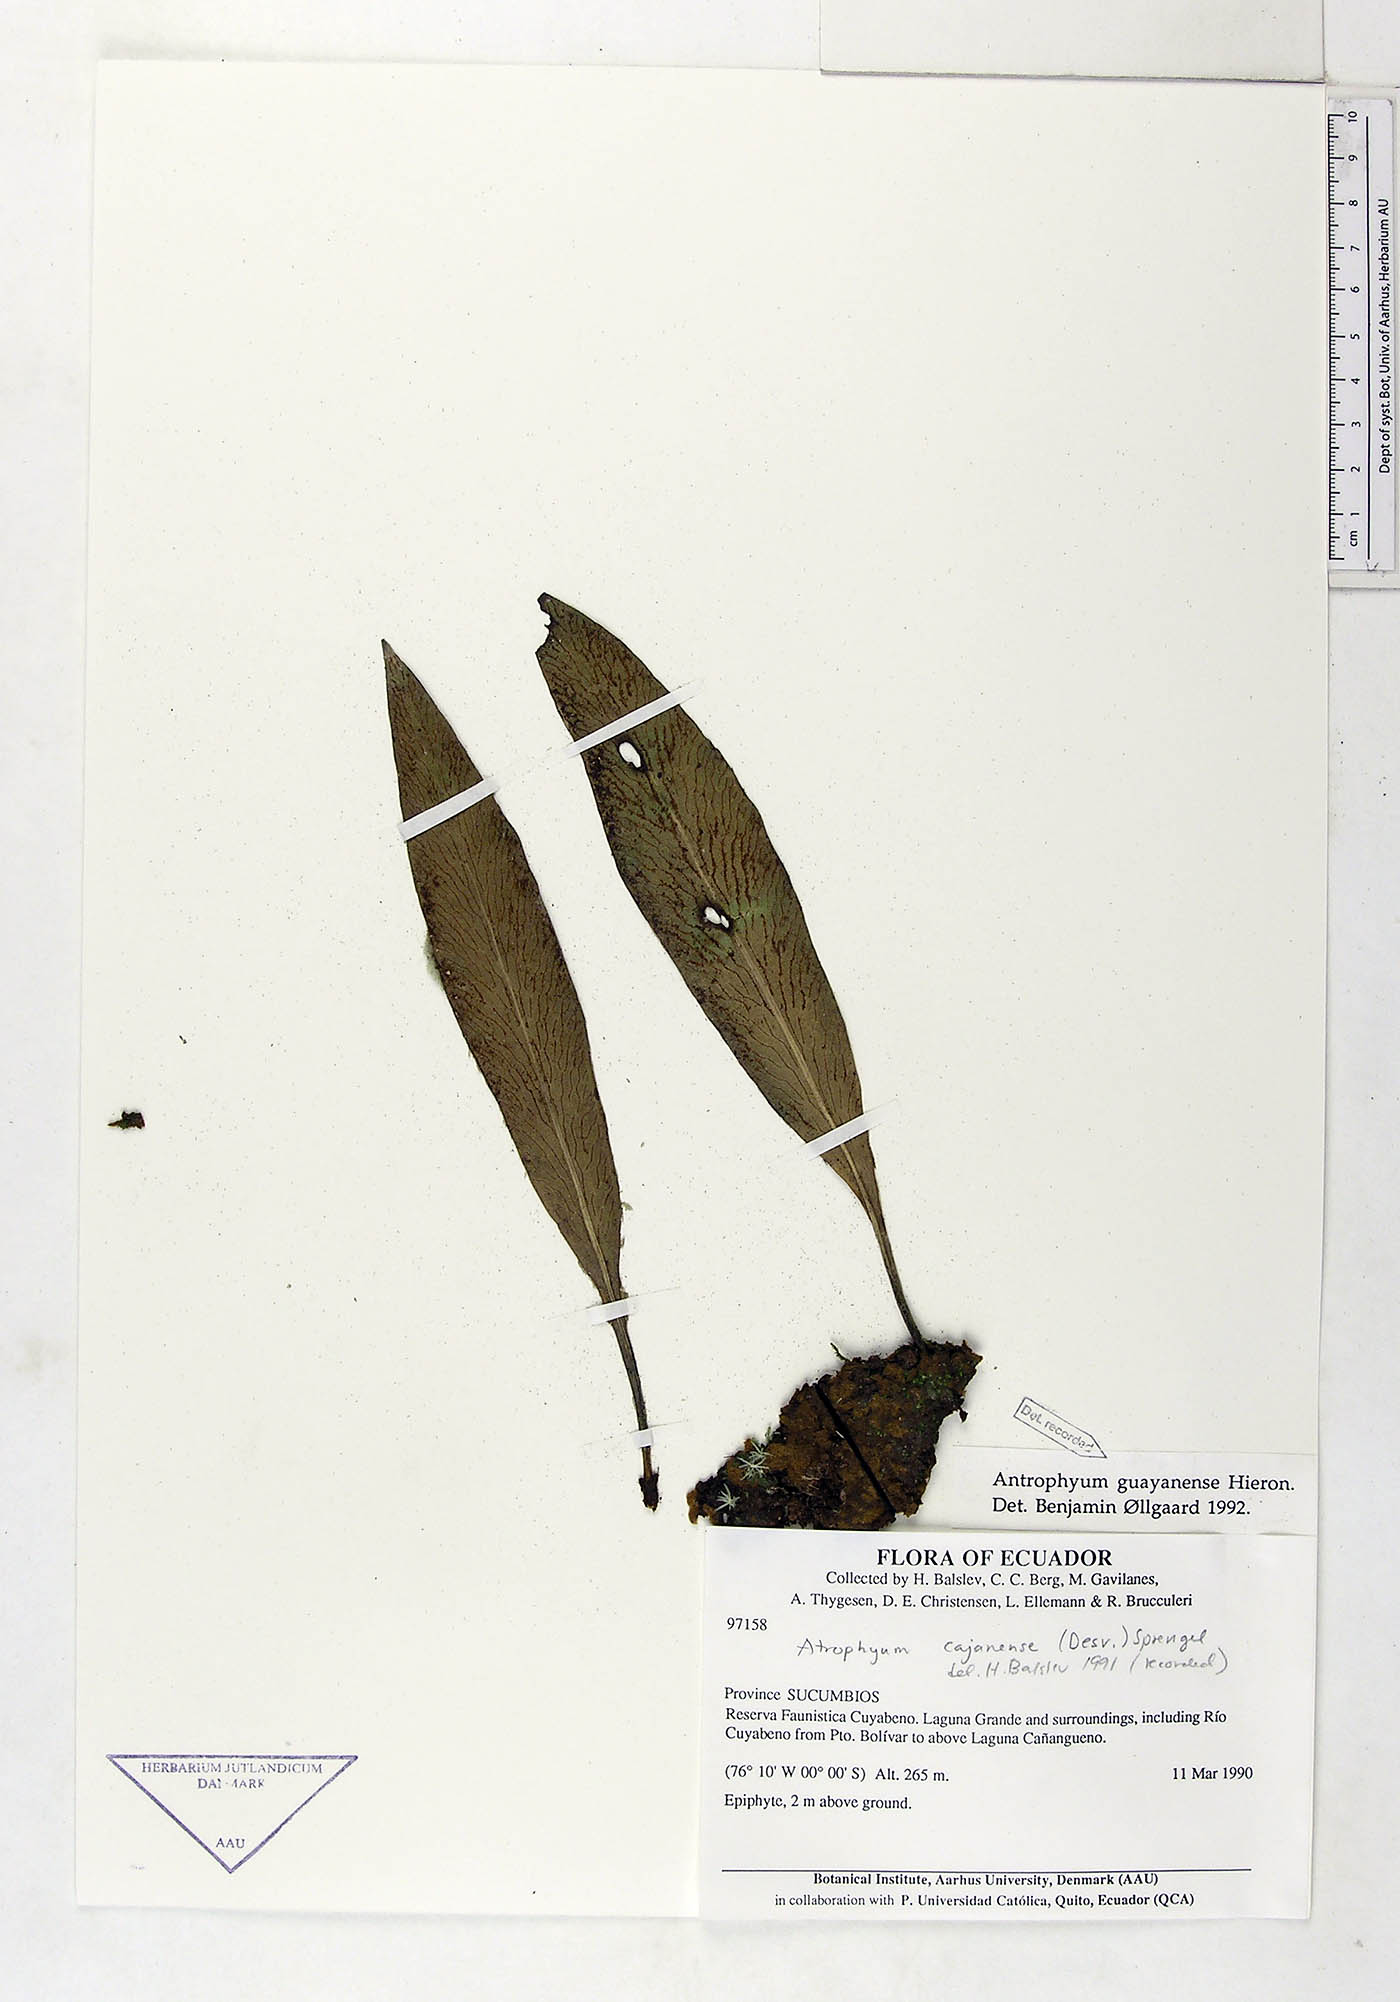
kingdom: Plantae
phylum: Tracheophyta
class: Polypodiopsida
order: Polypodiales
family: Pteridaceae
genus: Polytaenium
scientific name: Polytaenium guayanense
